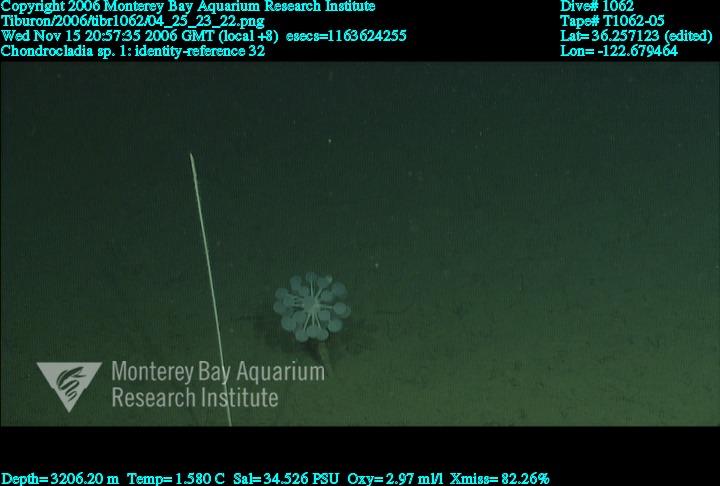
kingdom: Animalia
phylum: Porifera
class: Demospongiae
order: Poecilosclerida
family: Cladorhizidae
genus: Chondrocladia
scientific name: Chondrocladia
